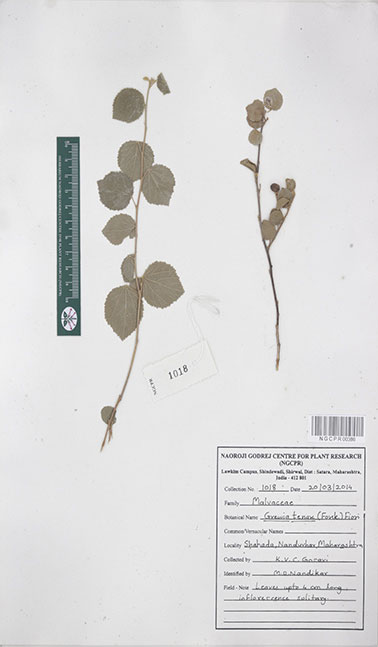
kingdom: Plantae
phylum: Tracheophyta
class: Magnoliopsida
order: Malvales
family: Malvaceae
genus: Grewia
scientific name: Grewia tenax
